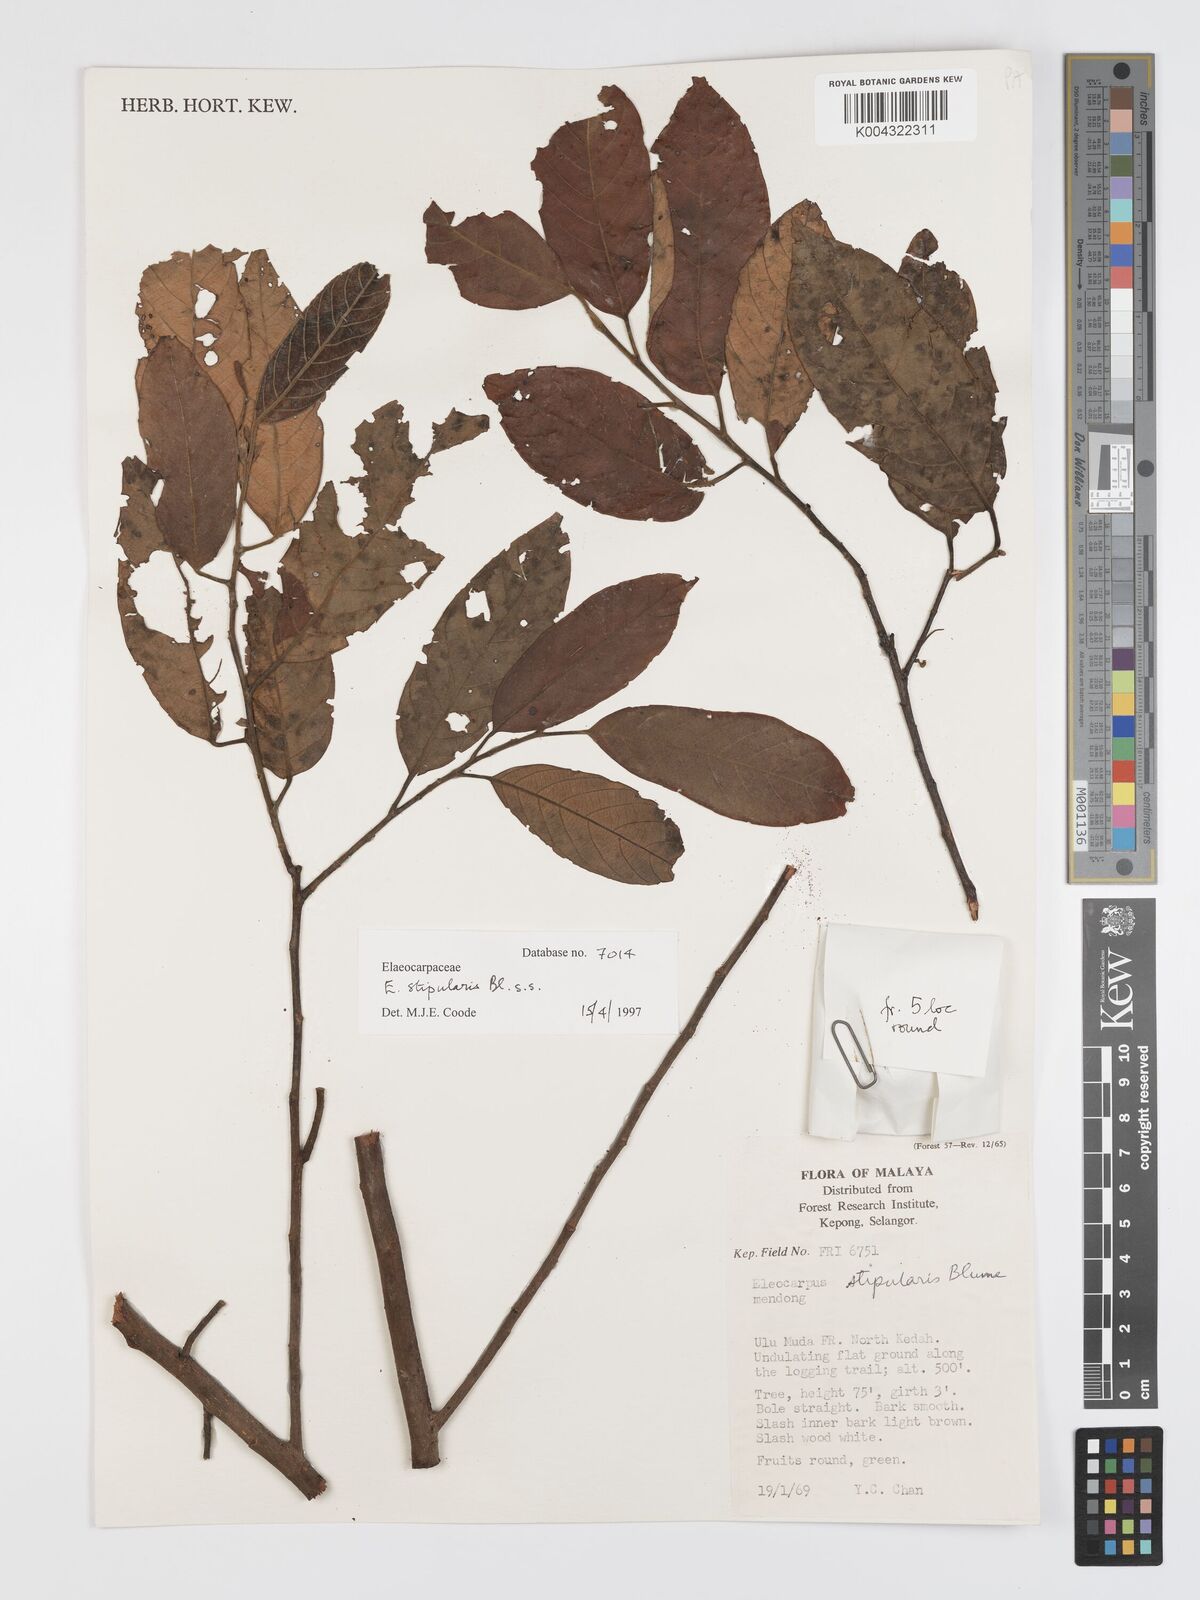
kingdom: Plantae
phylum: Tracheophyta
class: Magnoliopsida
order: Oxalidales
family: Elaeocarpaceae
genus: Elaeocarpus
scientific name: Elaeocarpus stipularis
